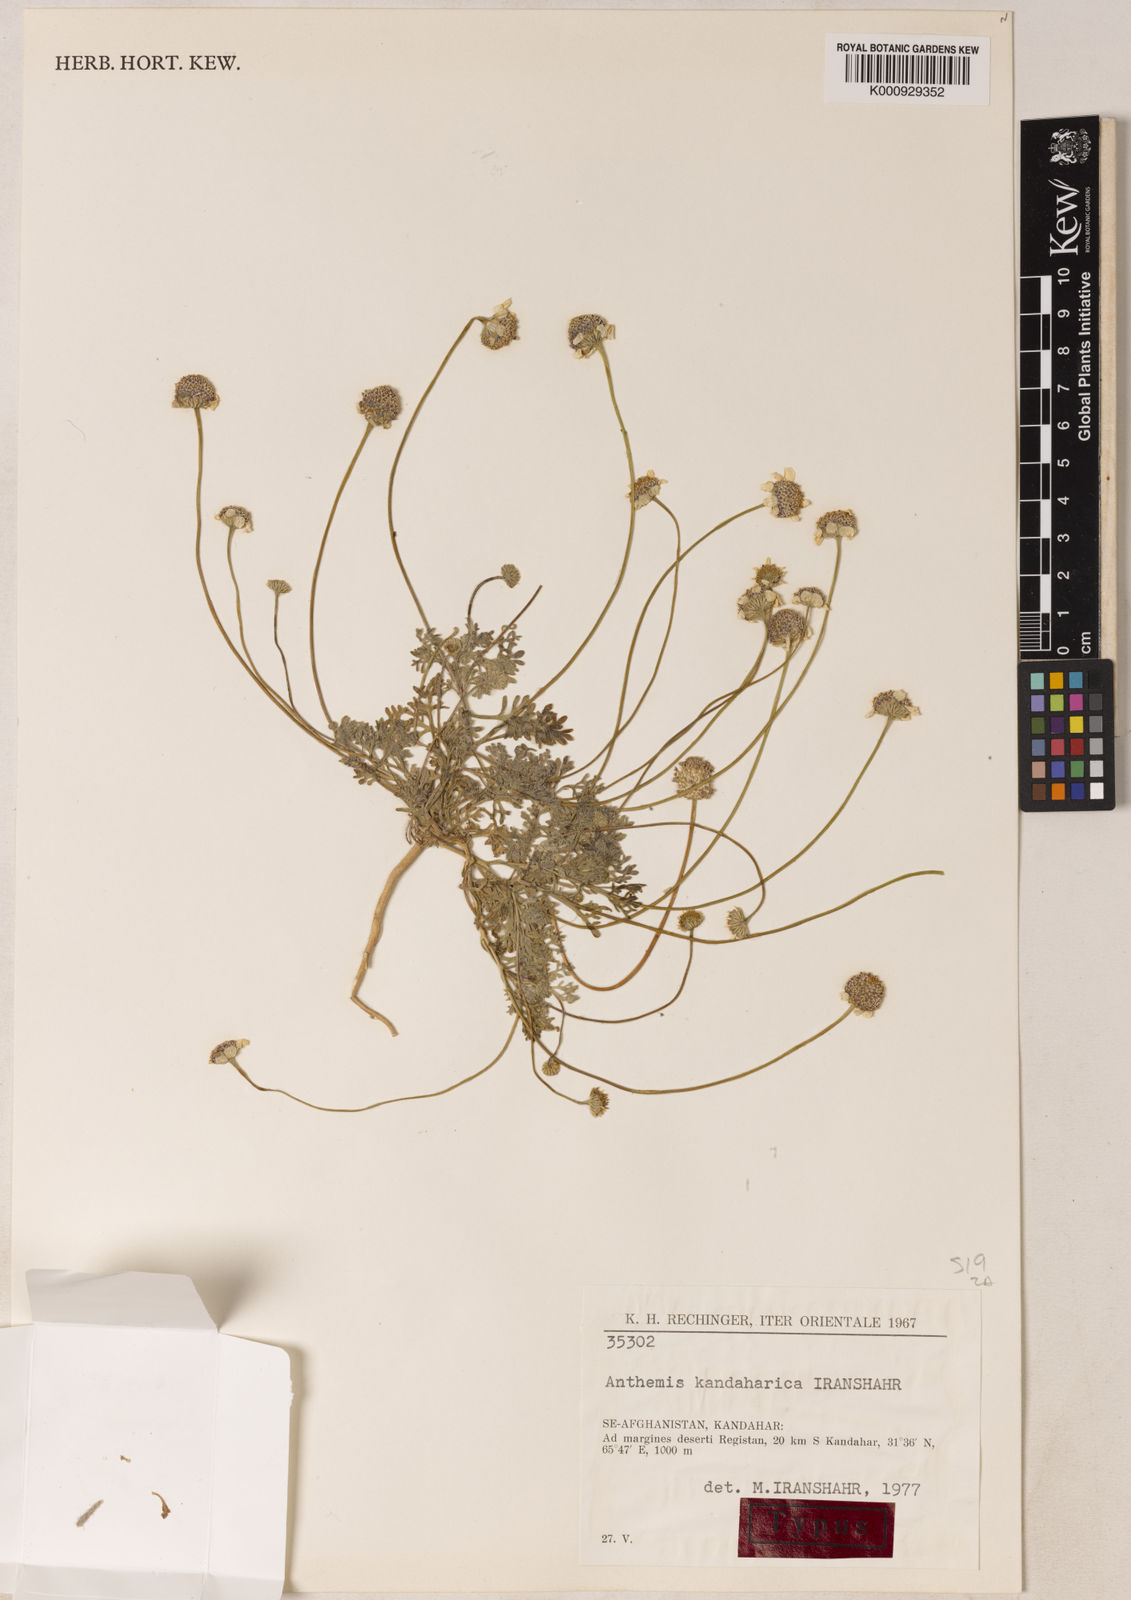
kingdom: Plantae
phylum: Tracheophyta
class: Magnoliopsida
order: Asterales
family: Asteraceae
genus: Anthemis
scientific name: Anthemis kandaharica
